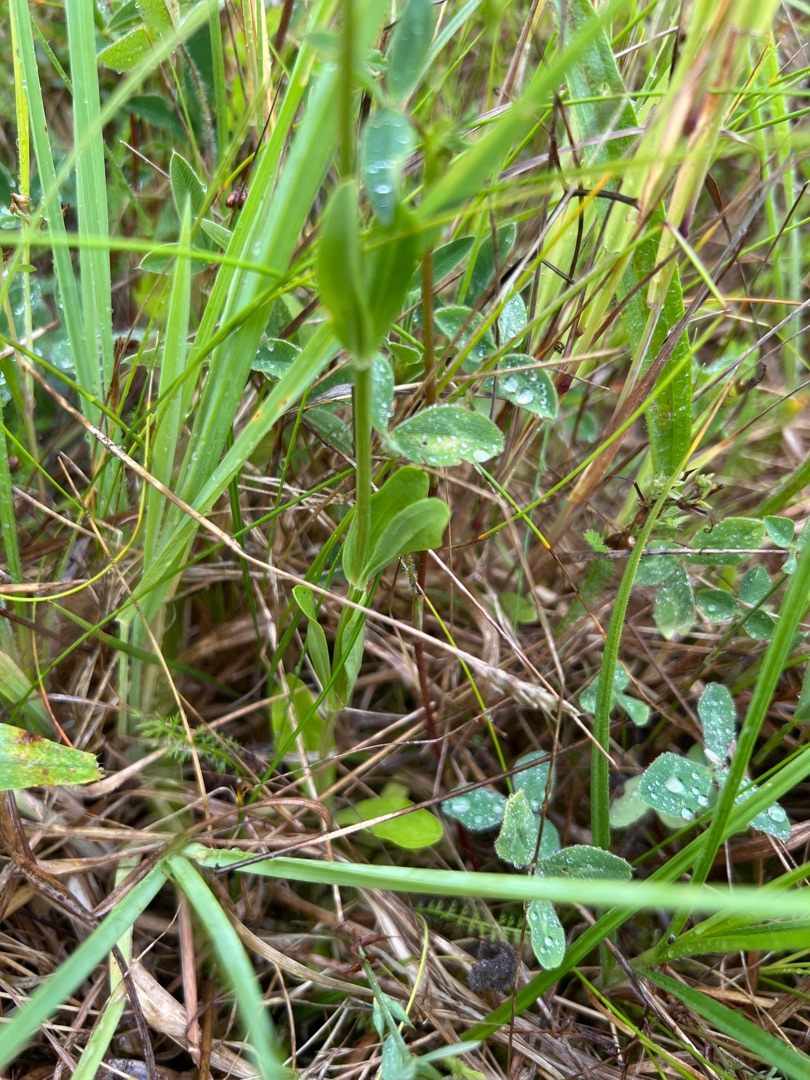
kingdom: Plantae
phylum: Tracheophyta
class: Magnoliopsida
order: Gentianales
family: Gentianaceae
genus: Centaurium
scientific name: Centaurium erythraea
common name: Mark-tusindgylden
